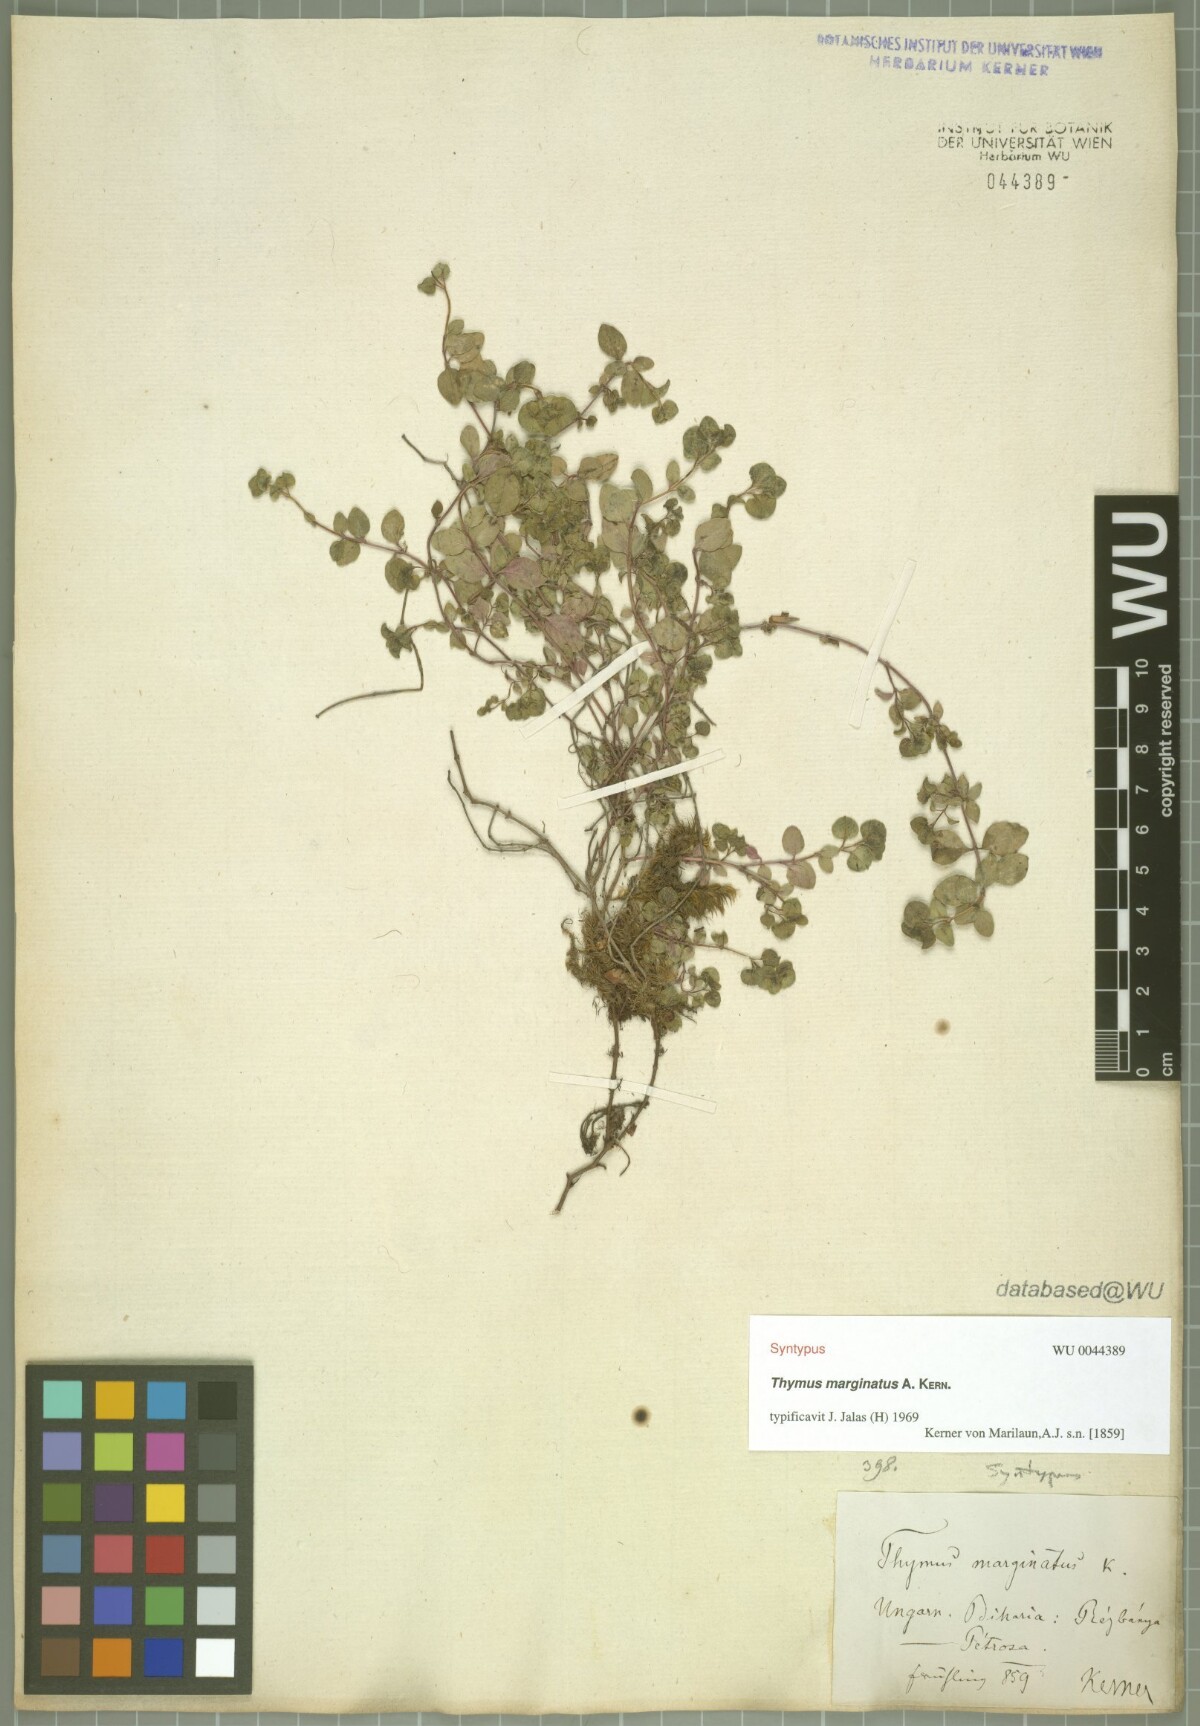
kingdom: Plantae
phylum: Tracheophyta
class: Magnoliopsida
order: Lamiales
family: Lamiaceae
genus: Thymus
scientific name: Thymus bihoriensis
